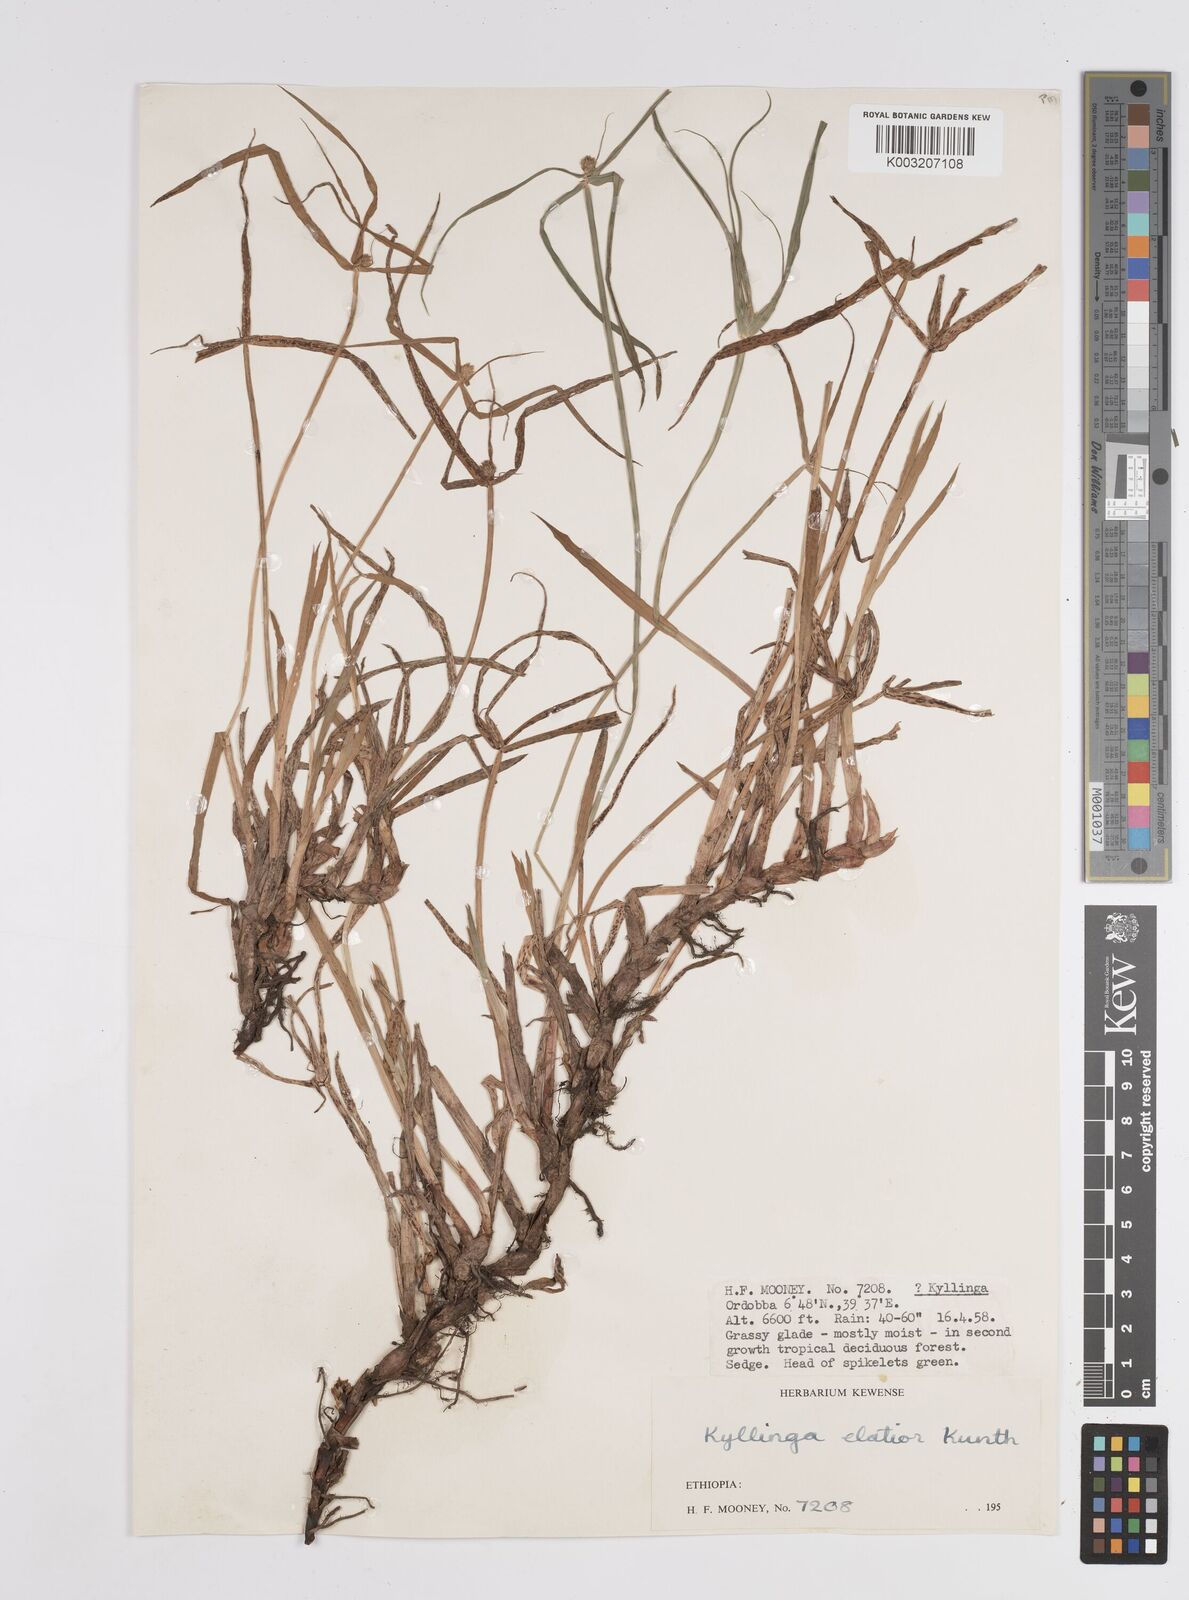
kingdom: Plantae
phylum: Tracheophyta
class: Liliopsida
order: Poales
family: Cyperaceae
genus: Cyperus
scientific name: Cyperus
